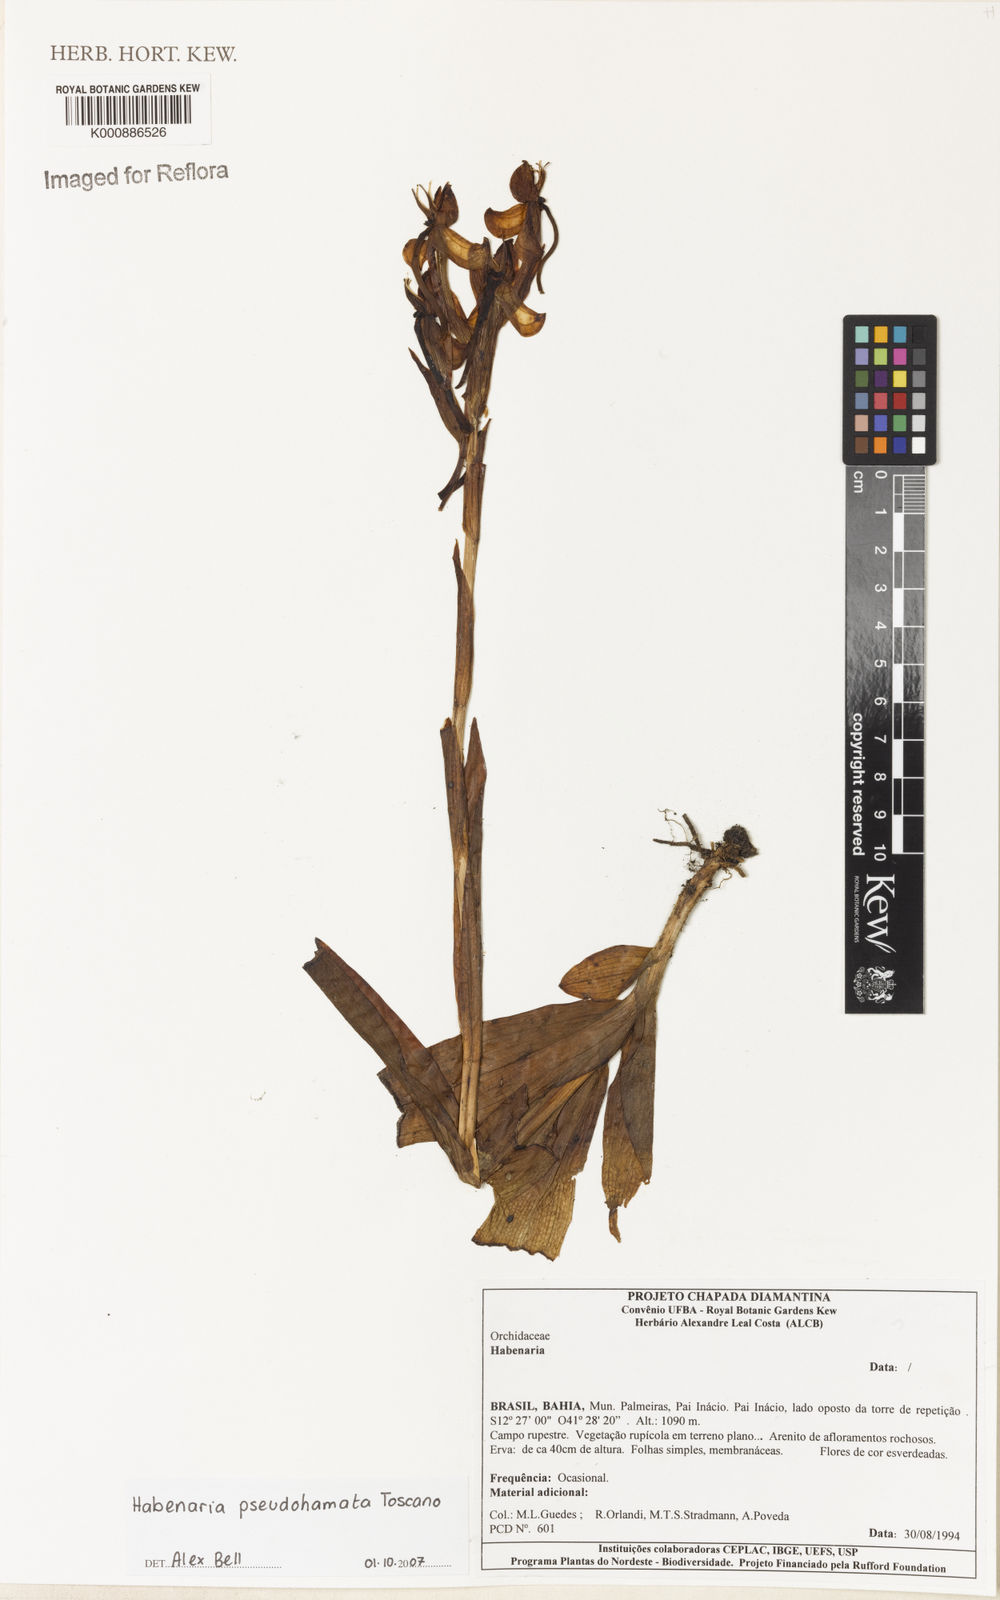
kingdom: Plantae
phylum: Tracheophyta
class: Liliopsida
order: Asparagales
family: Orchidaceae
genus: Habenaria
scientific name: Habenaria pseudohamata
